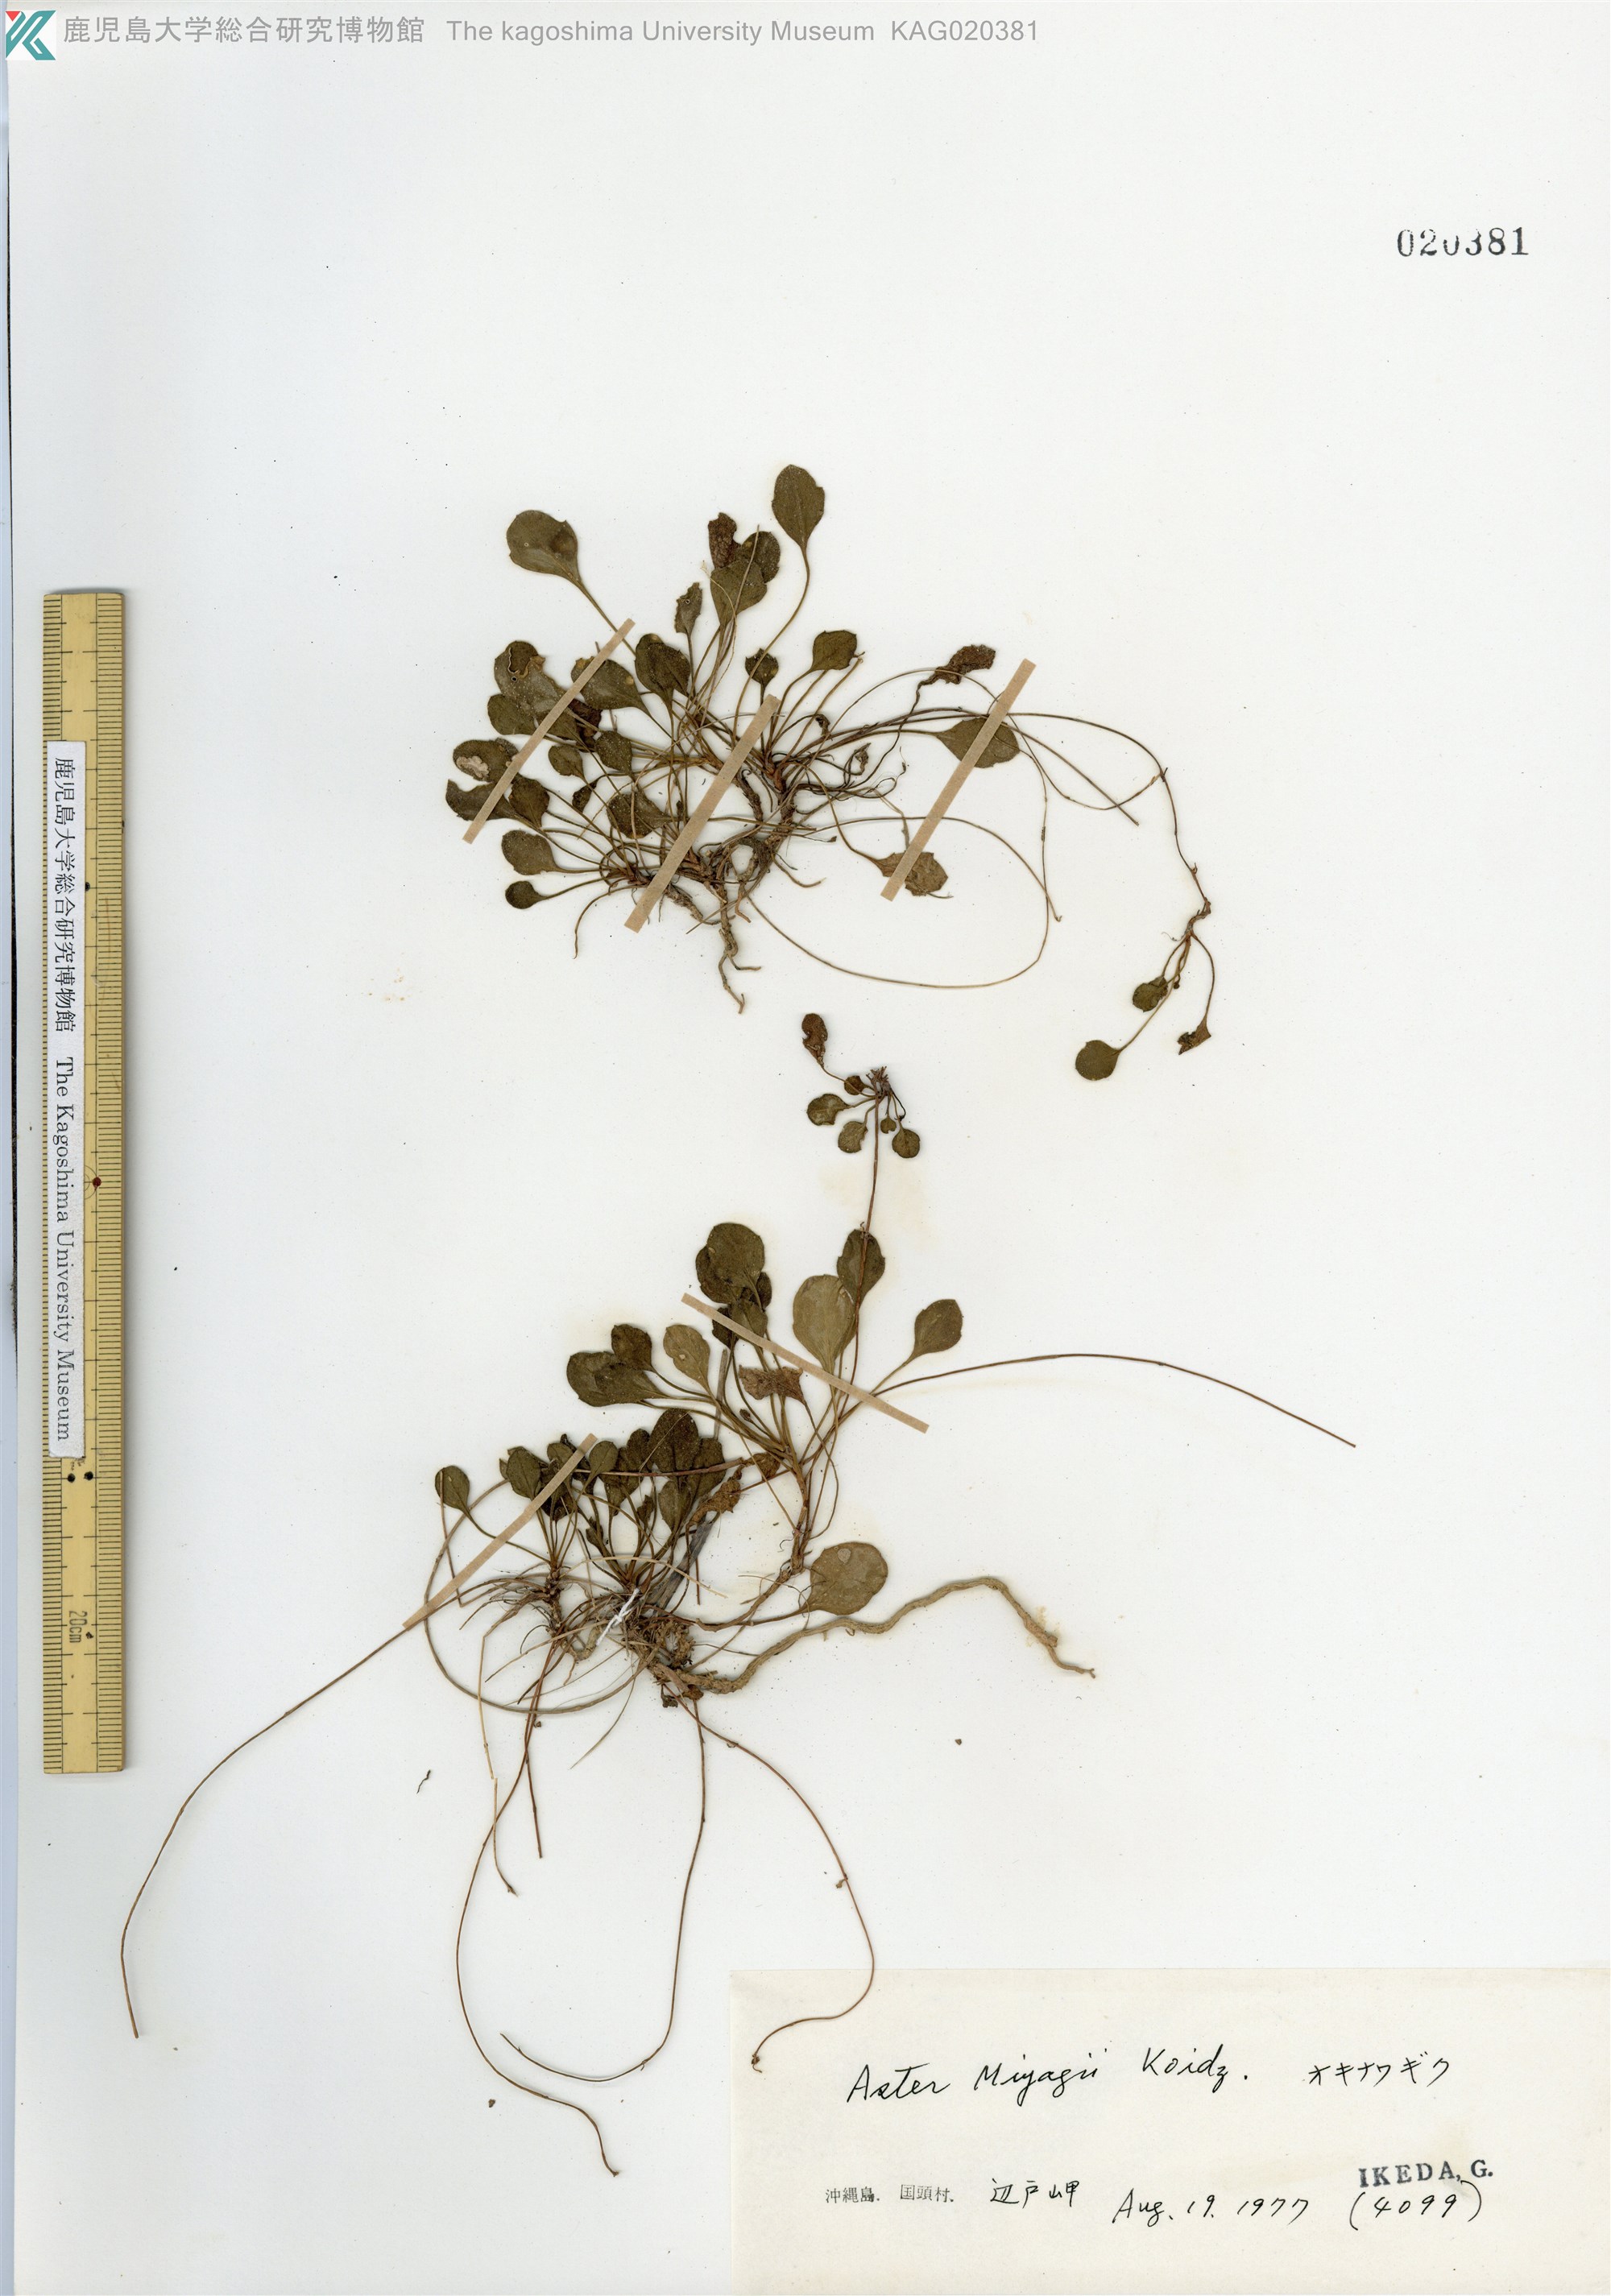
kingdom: Plantae
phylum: Tracheophyta
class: Magnoliopsida
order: Asterales
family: Asteraceae
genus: Aster
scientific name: Aster miyagii
